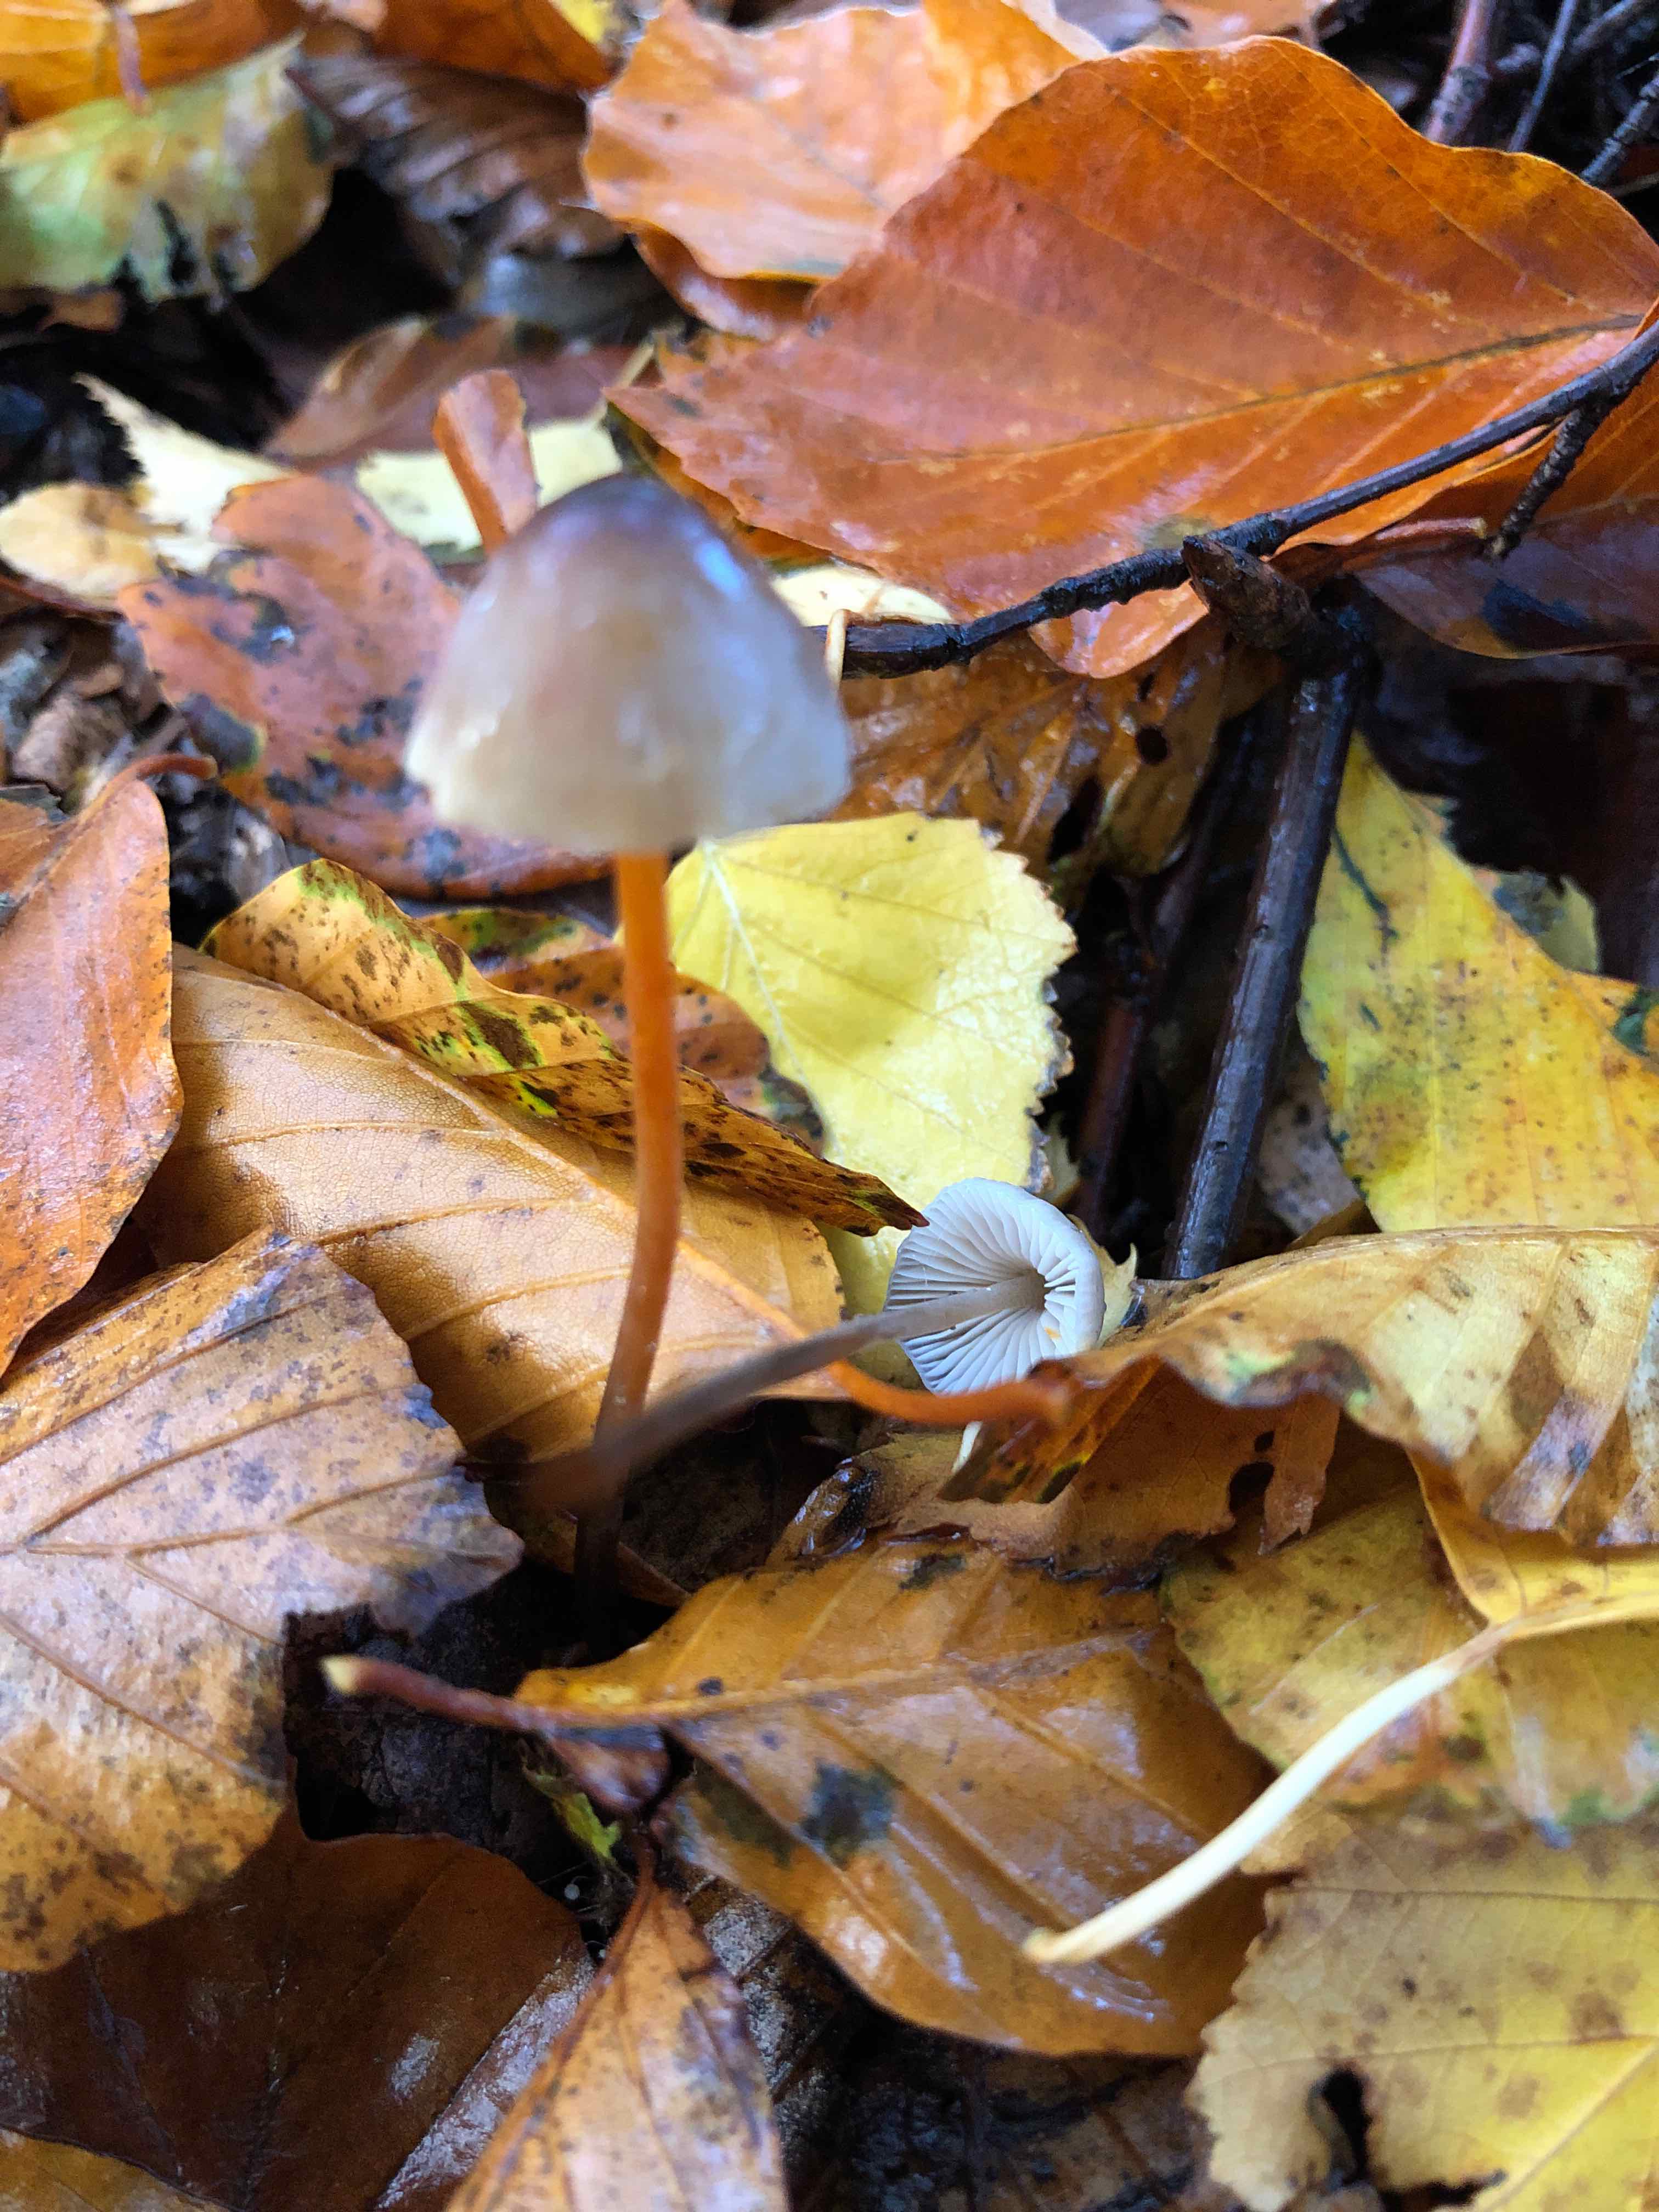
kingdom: Fungi
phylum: Basidiomycota
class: Agaricomycetes
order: Agaricales
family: Mycenaceae
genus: Mycena
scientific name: Mycena crocata
